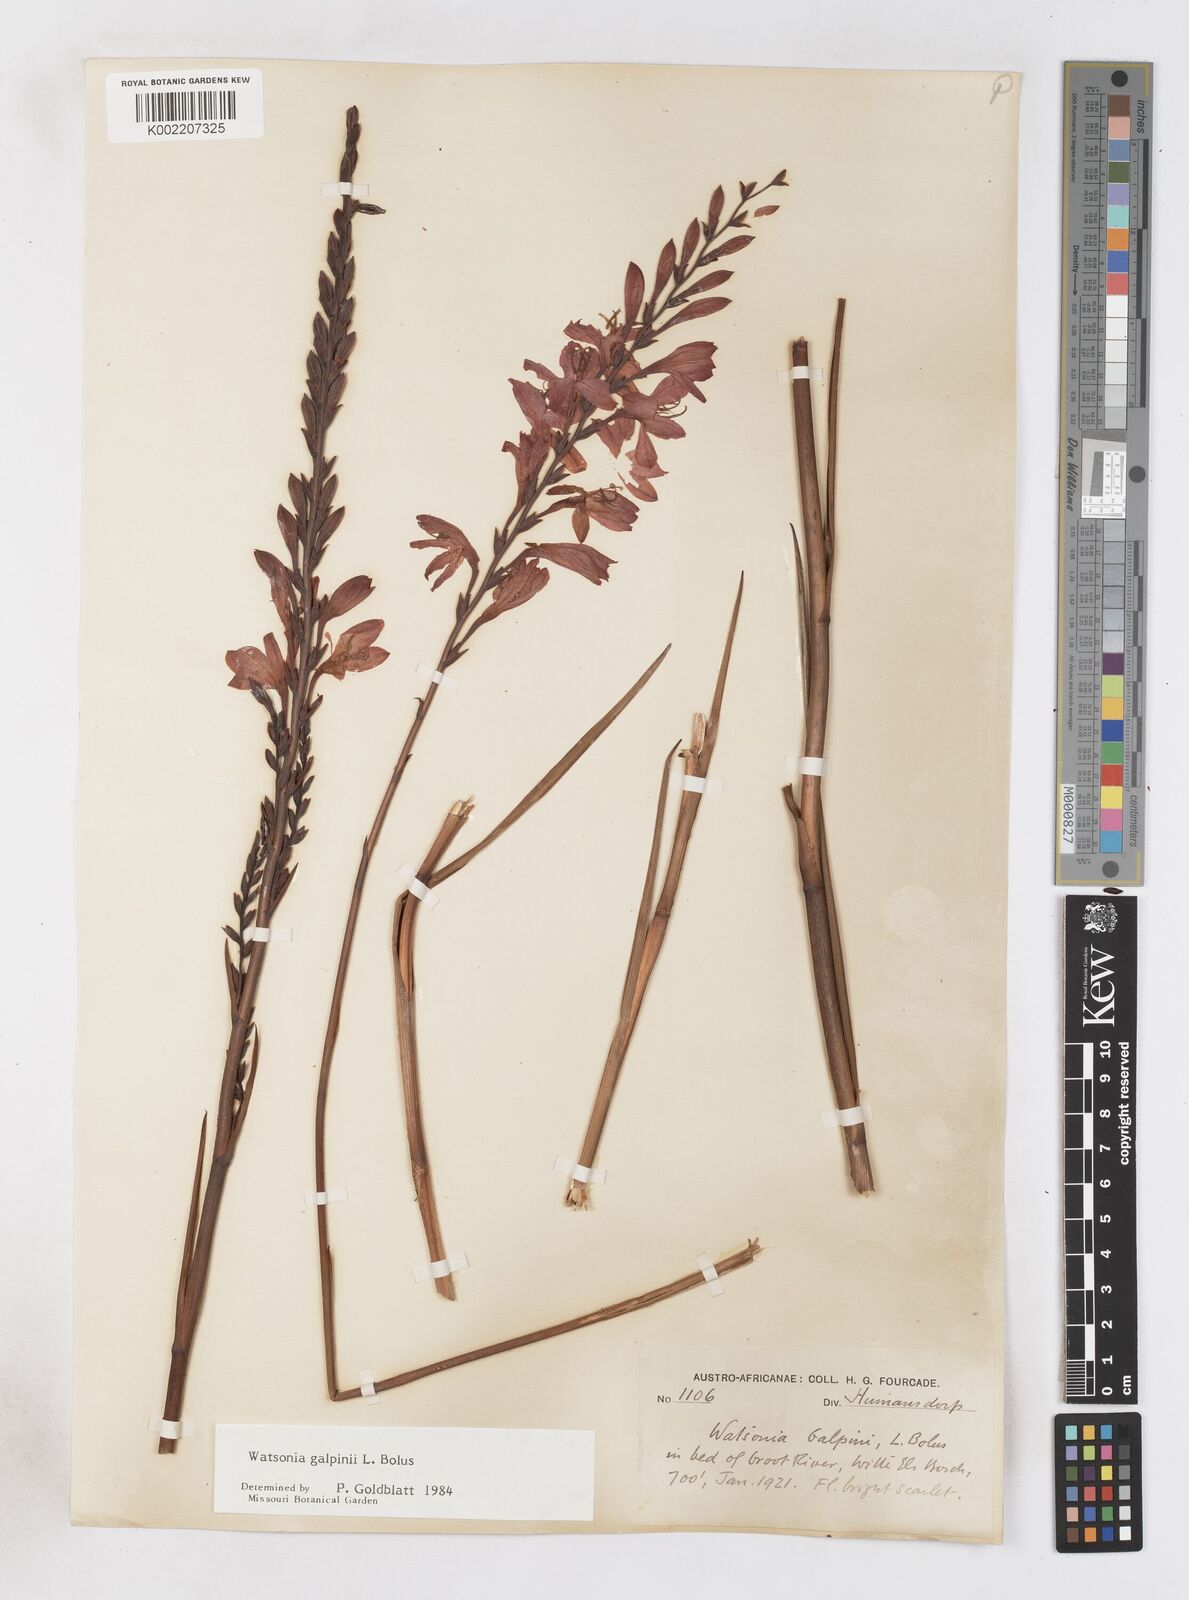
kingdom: Plantae
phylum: Tracheophyta
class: Liliopsida
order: Asparagales
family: Iridaceae
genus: Watsonia
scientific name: Watsonia galpinii
